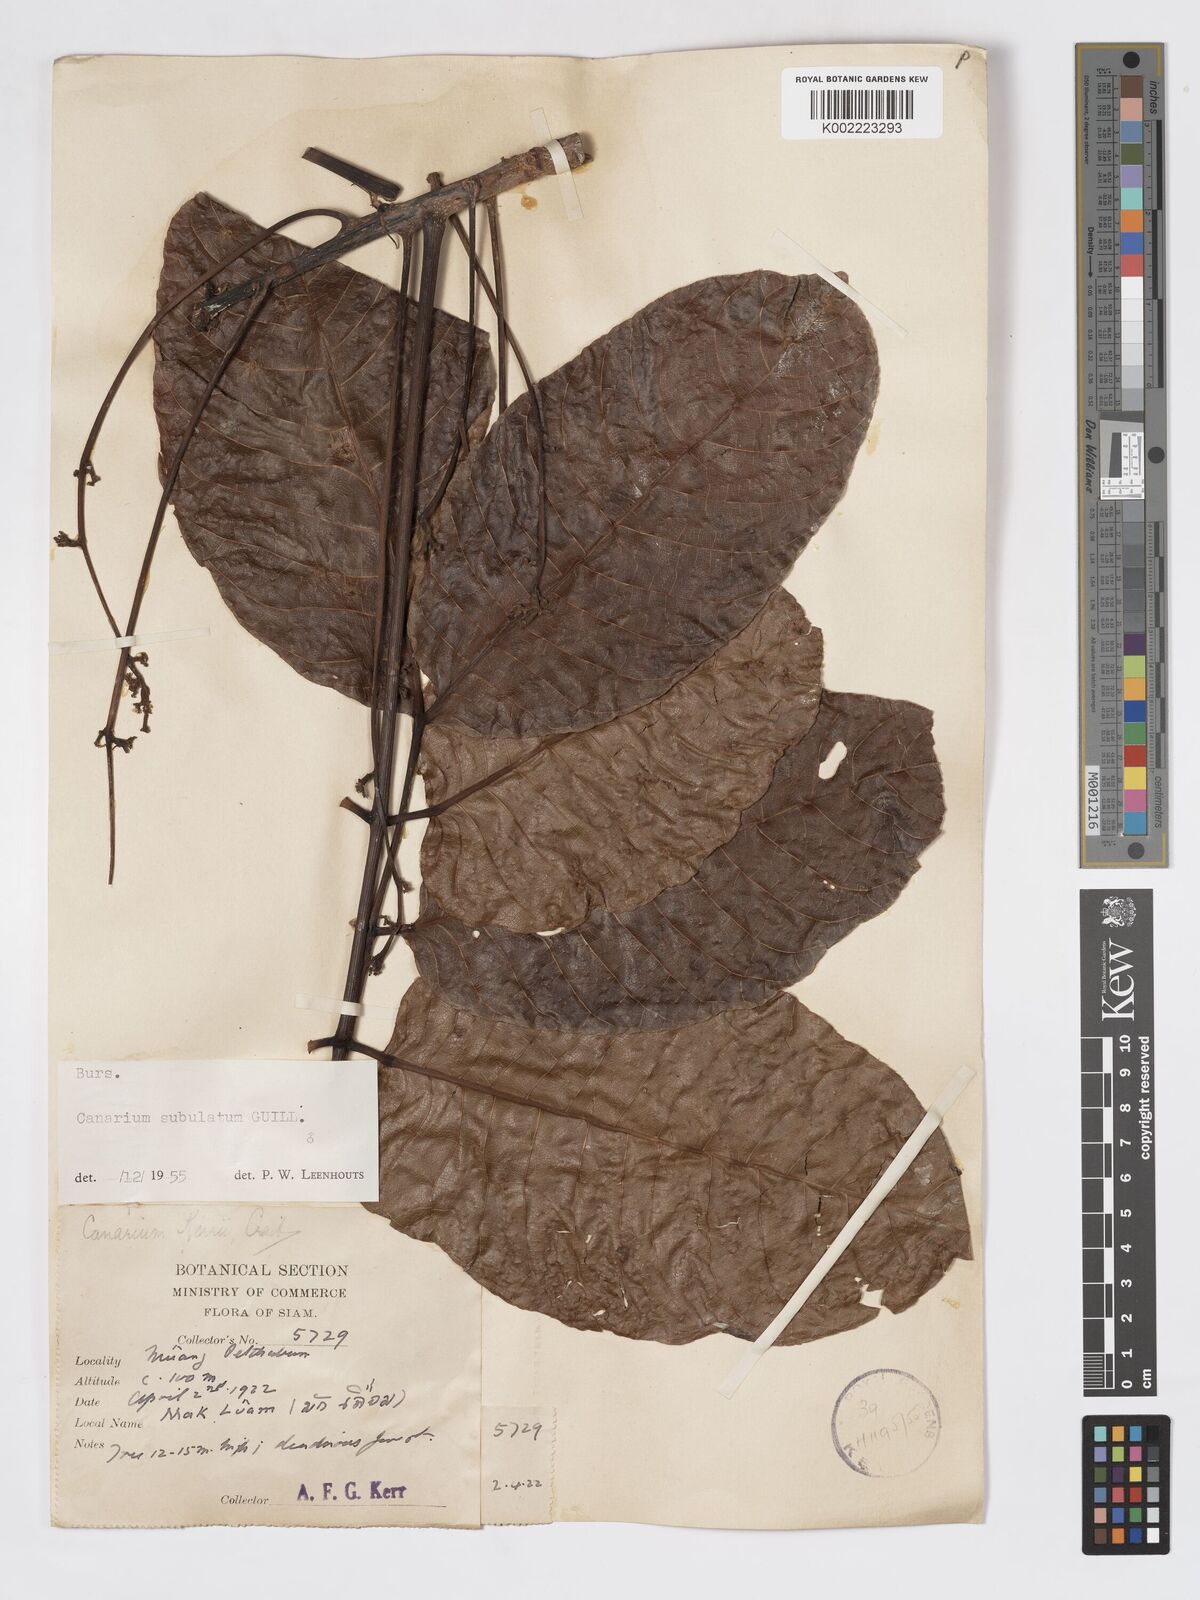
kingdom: Plantae
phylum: Tracheophyta
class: Magnoliopsida
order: Sapindales
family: Burseraceae
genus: Canarium
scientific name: Canarium subulatum
